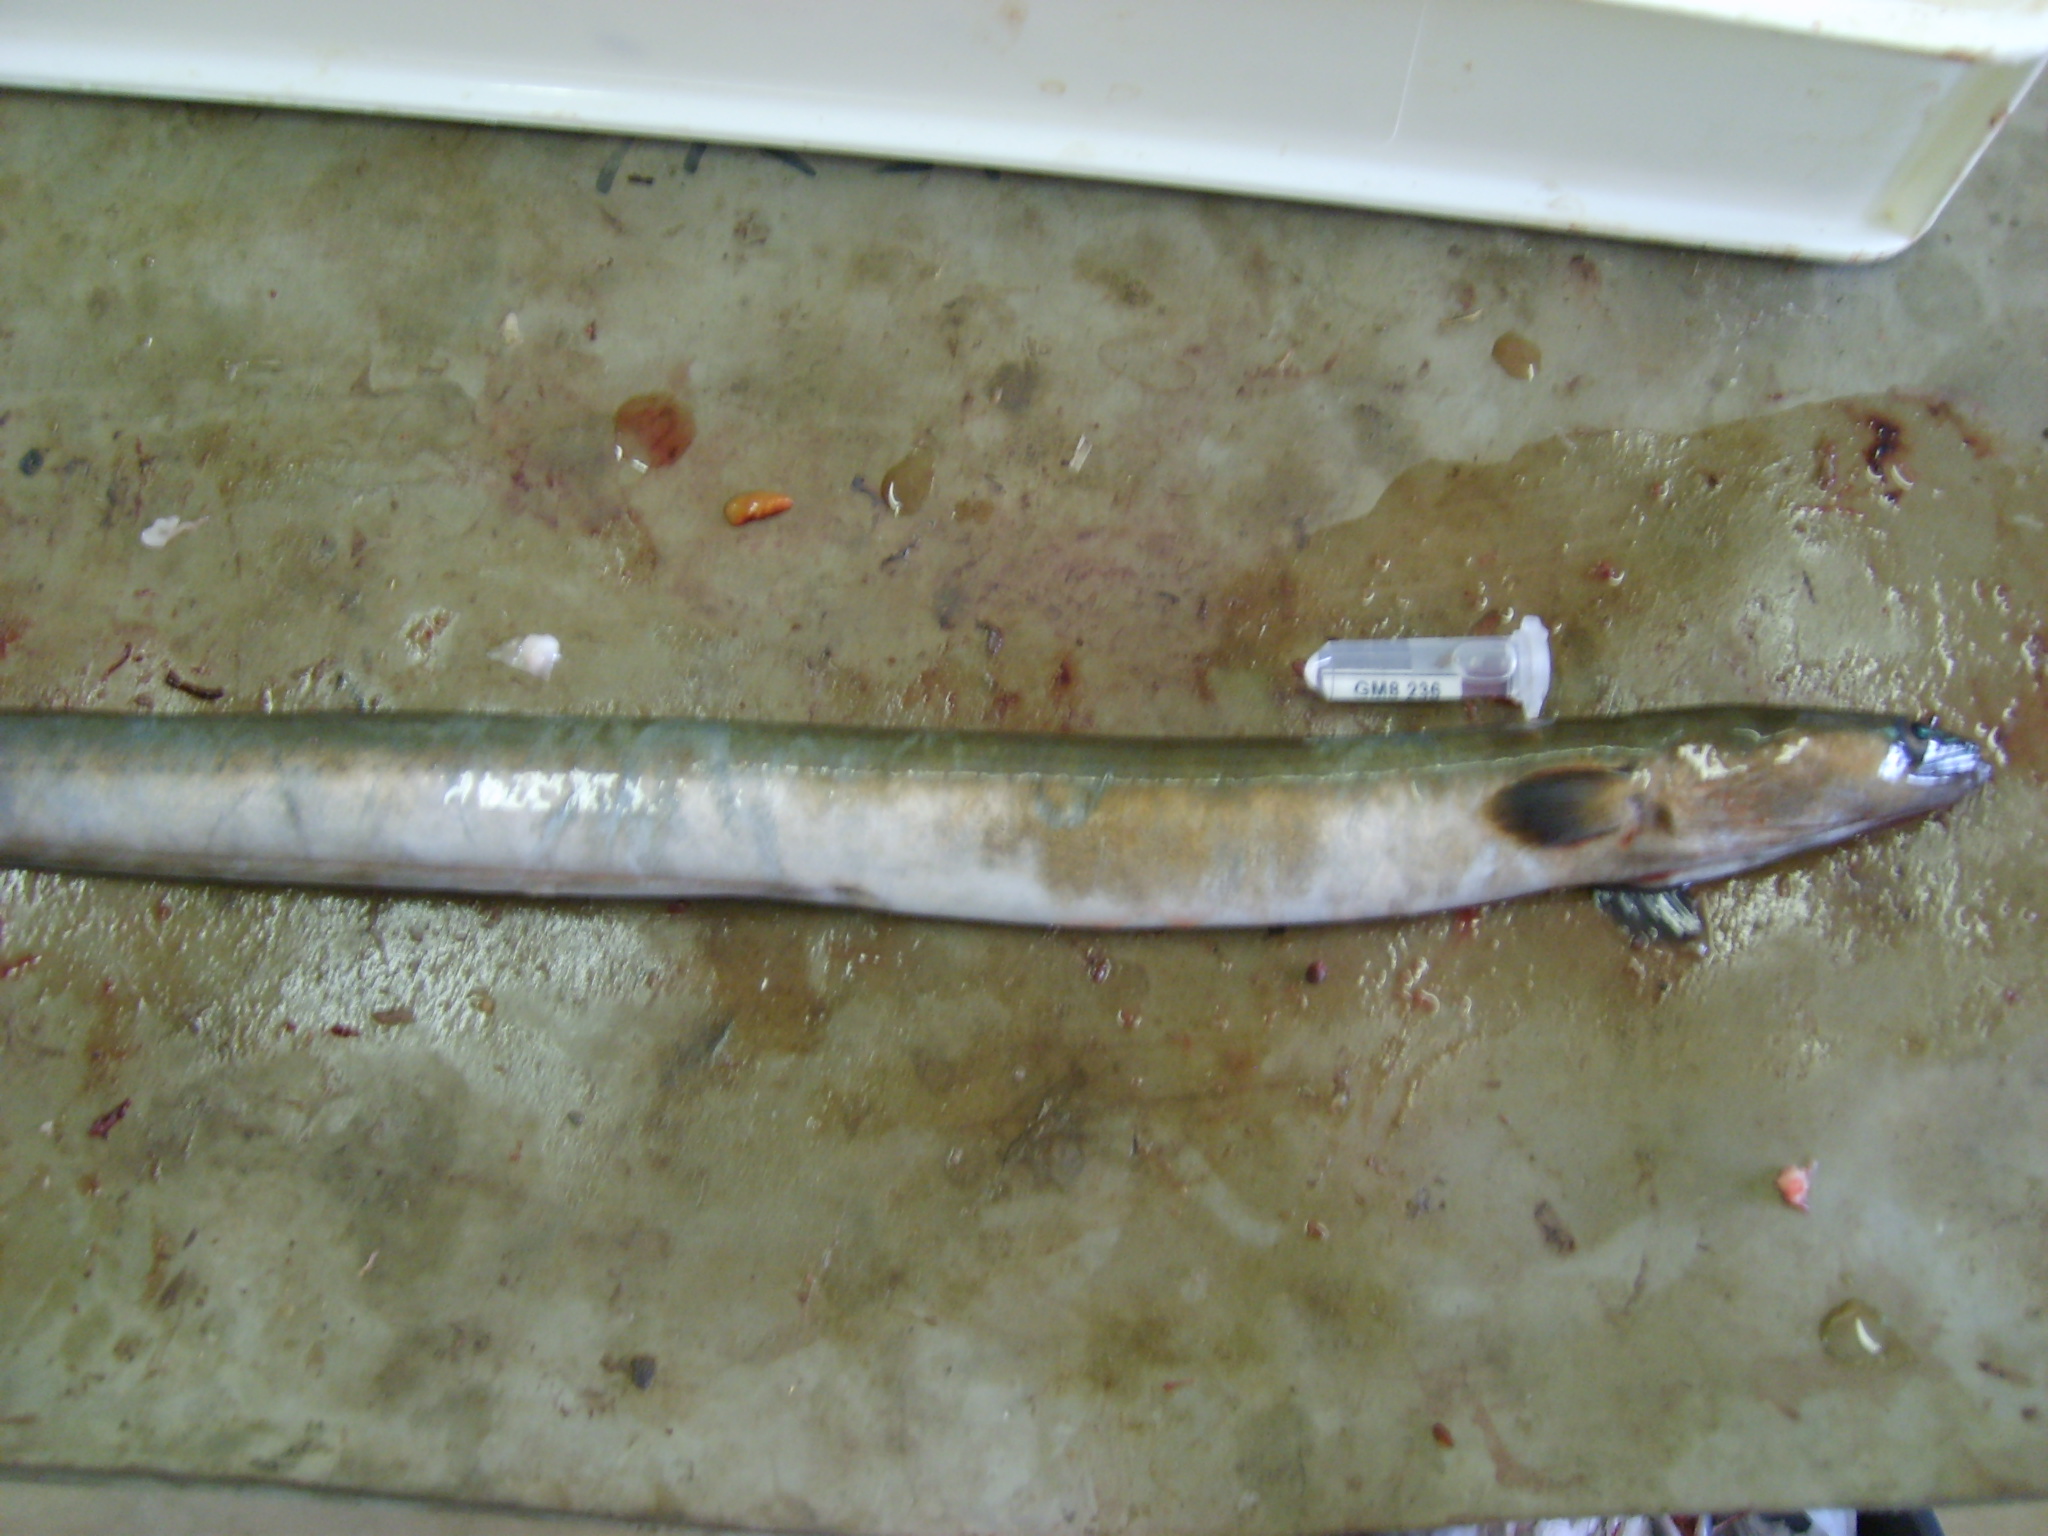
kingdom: Animalia
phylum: Chordata
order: Anguilliformes
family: Anguillidae
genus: Anguilla
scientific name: Anguilla mossambica
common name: African longfin eel
